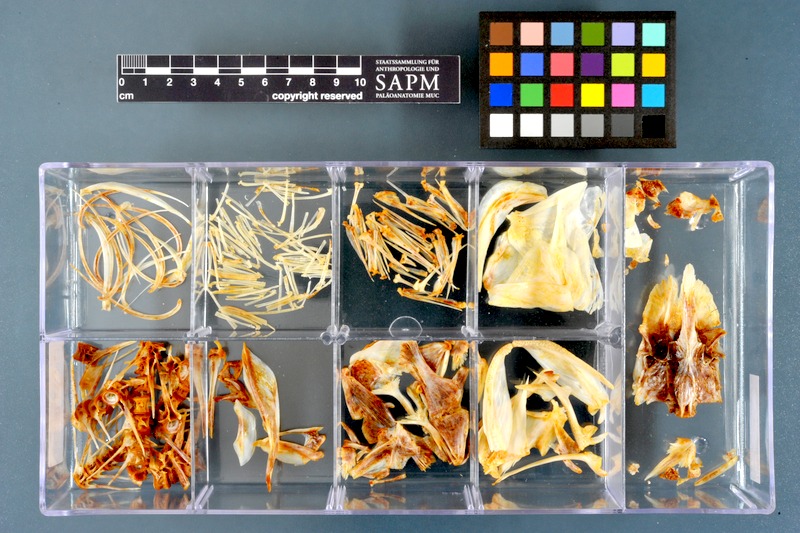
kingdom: Animalia
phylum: Chordata
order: Perciformes
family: Centrarchidae
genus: Micropterus
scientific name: Micropterus dolomieu
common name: Smallmouth bass
